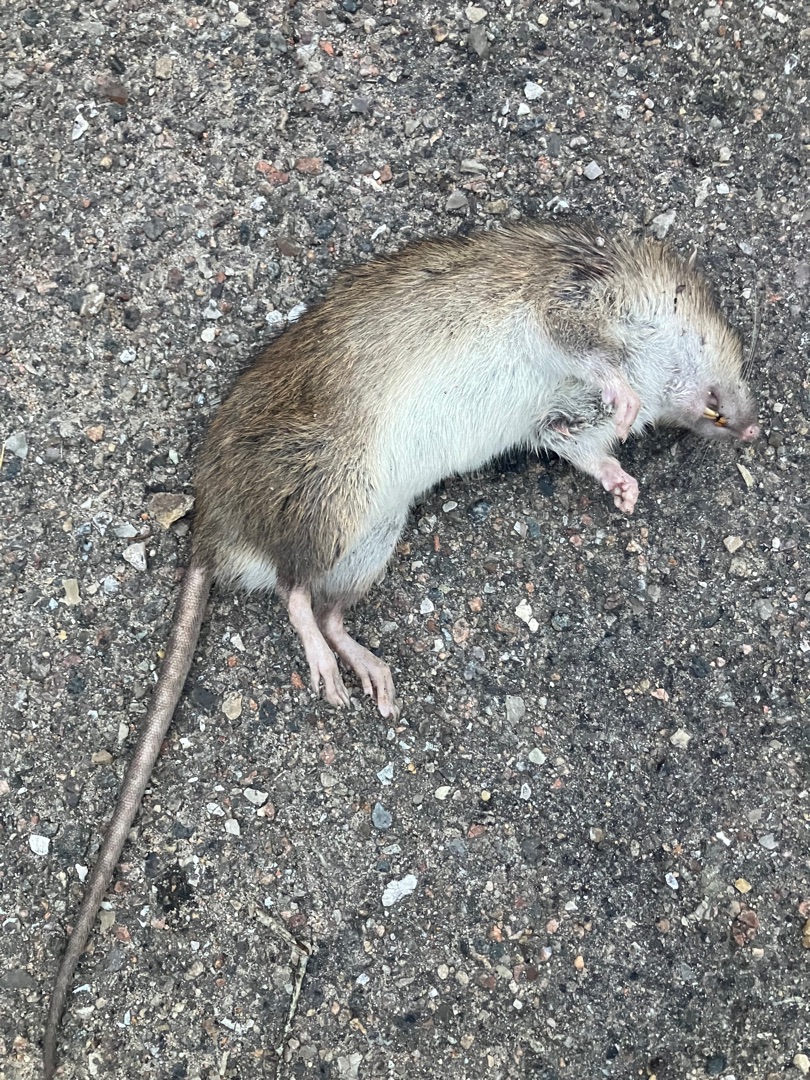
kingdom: Animalia
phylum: Chordata
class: Mammalia
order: Rodentia
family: Muridae
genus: Rattus
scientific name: Rattus norvegicus
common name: Brun rotte
